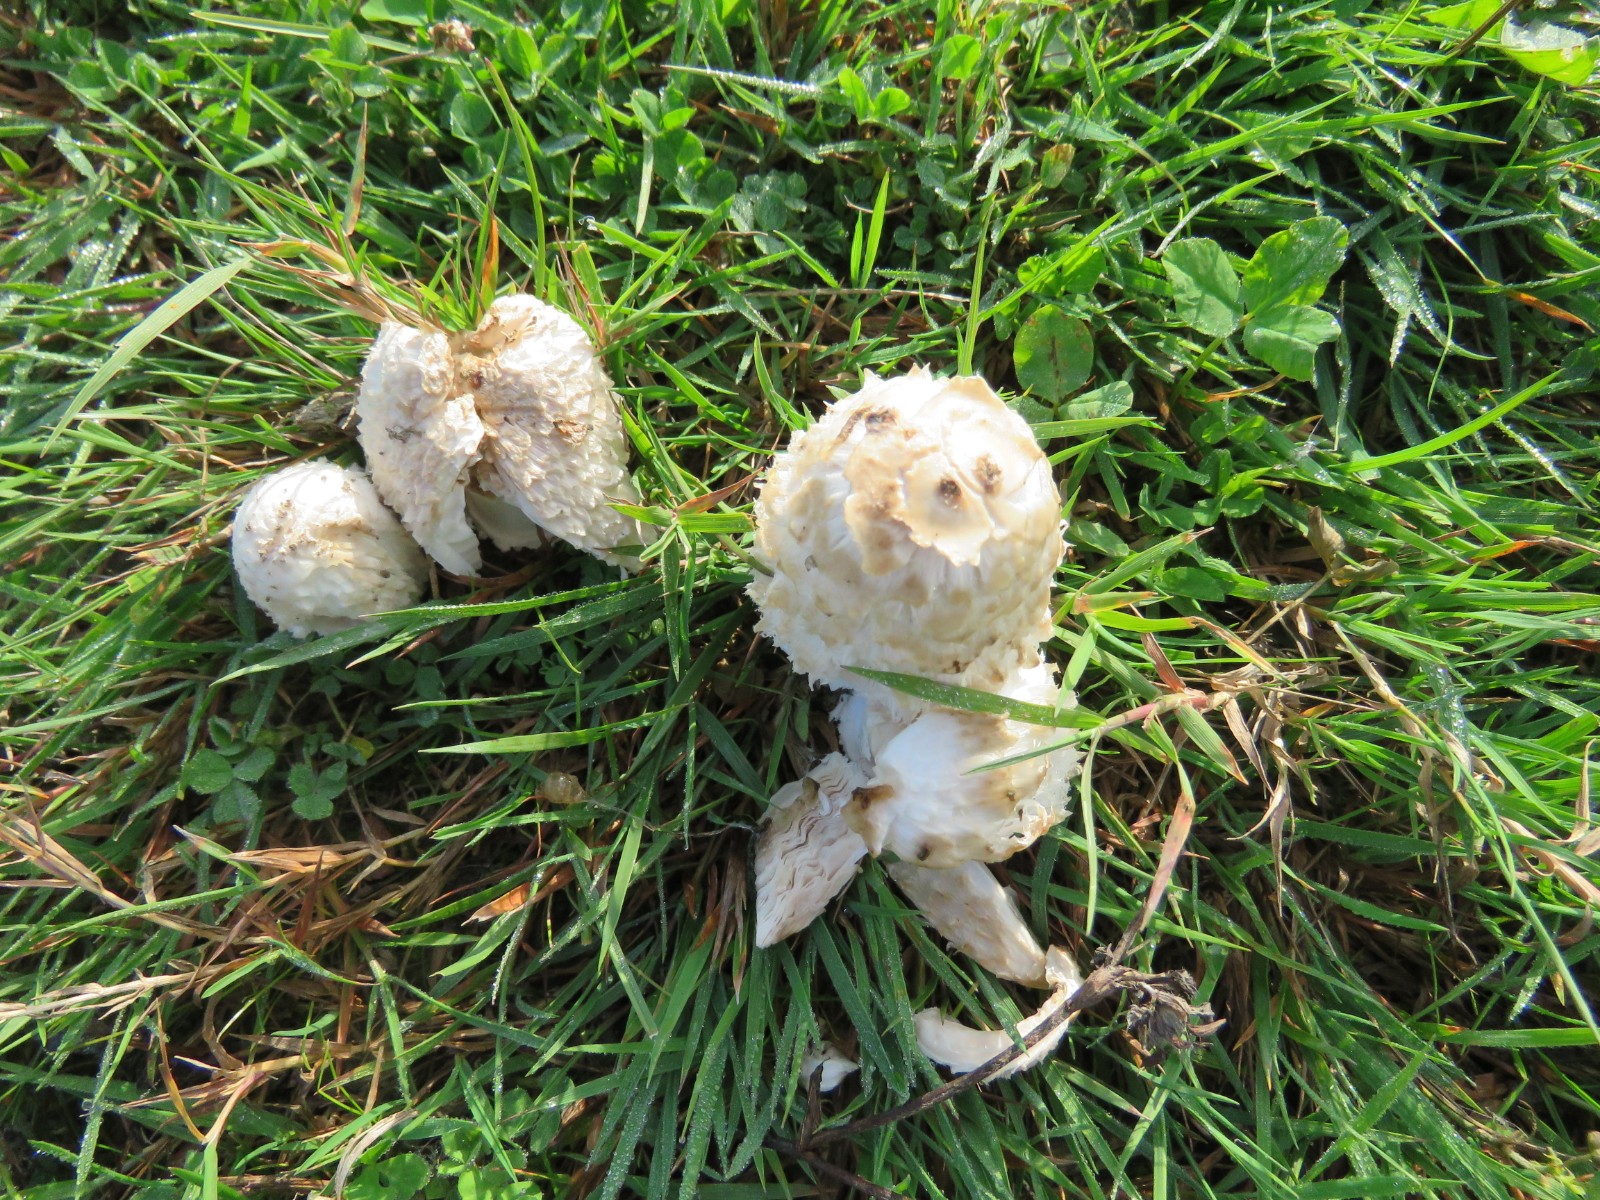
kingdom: Fungi
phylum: Basidiomycota
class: Agaricomycetes
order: Agaricales
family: Agaricaceae
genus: Coprinus
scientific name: Coprinus comatus
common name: stor parykhat
